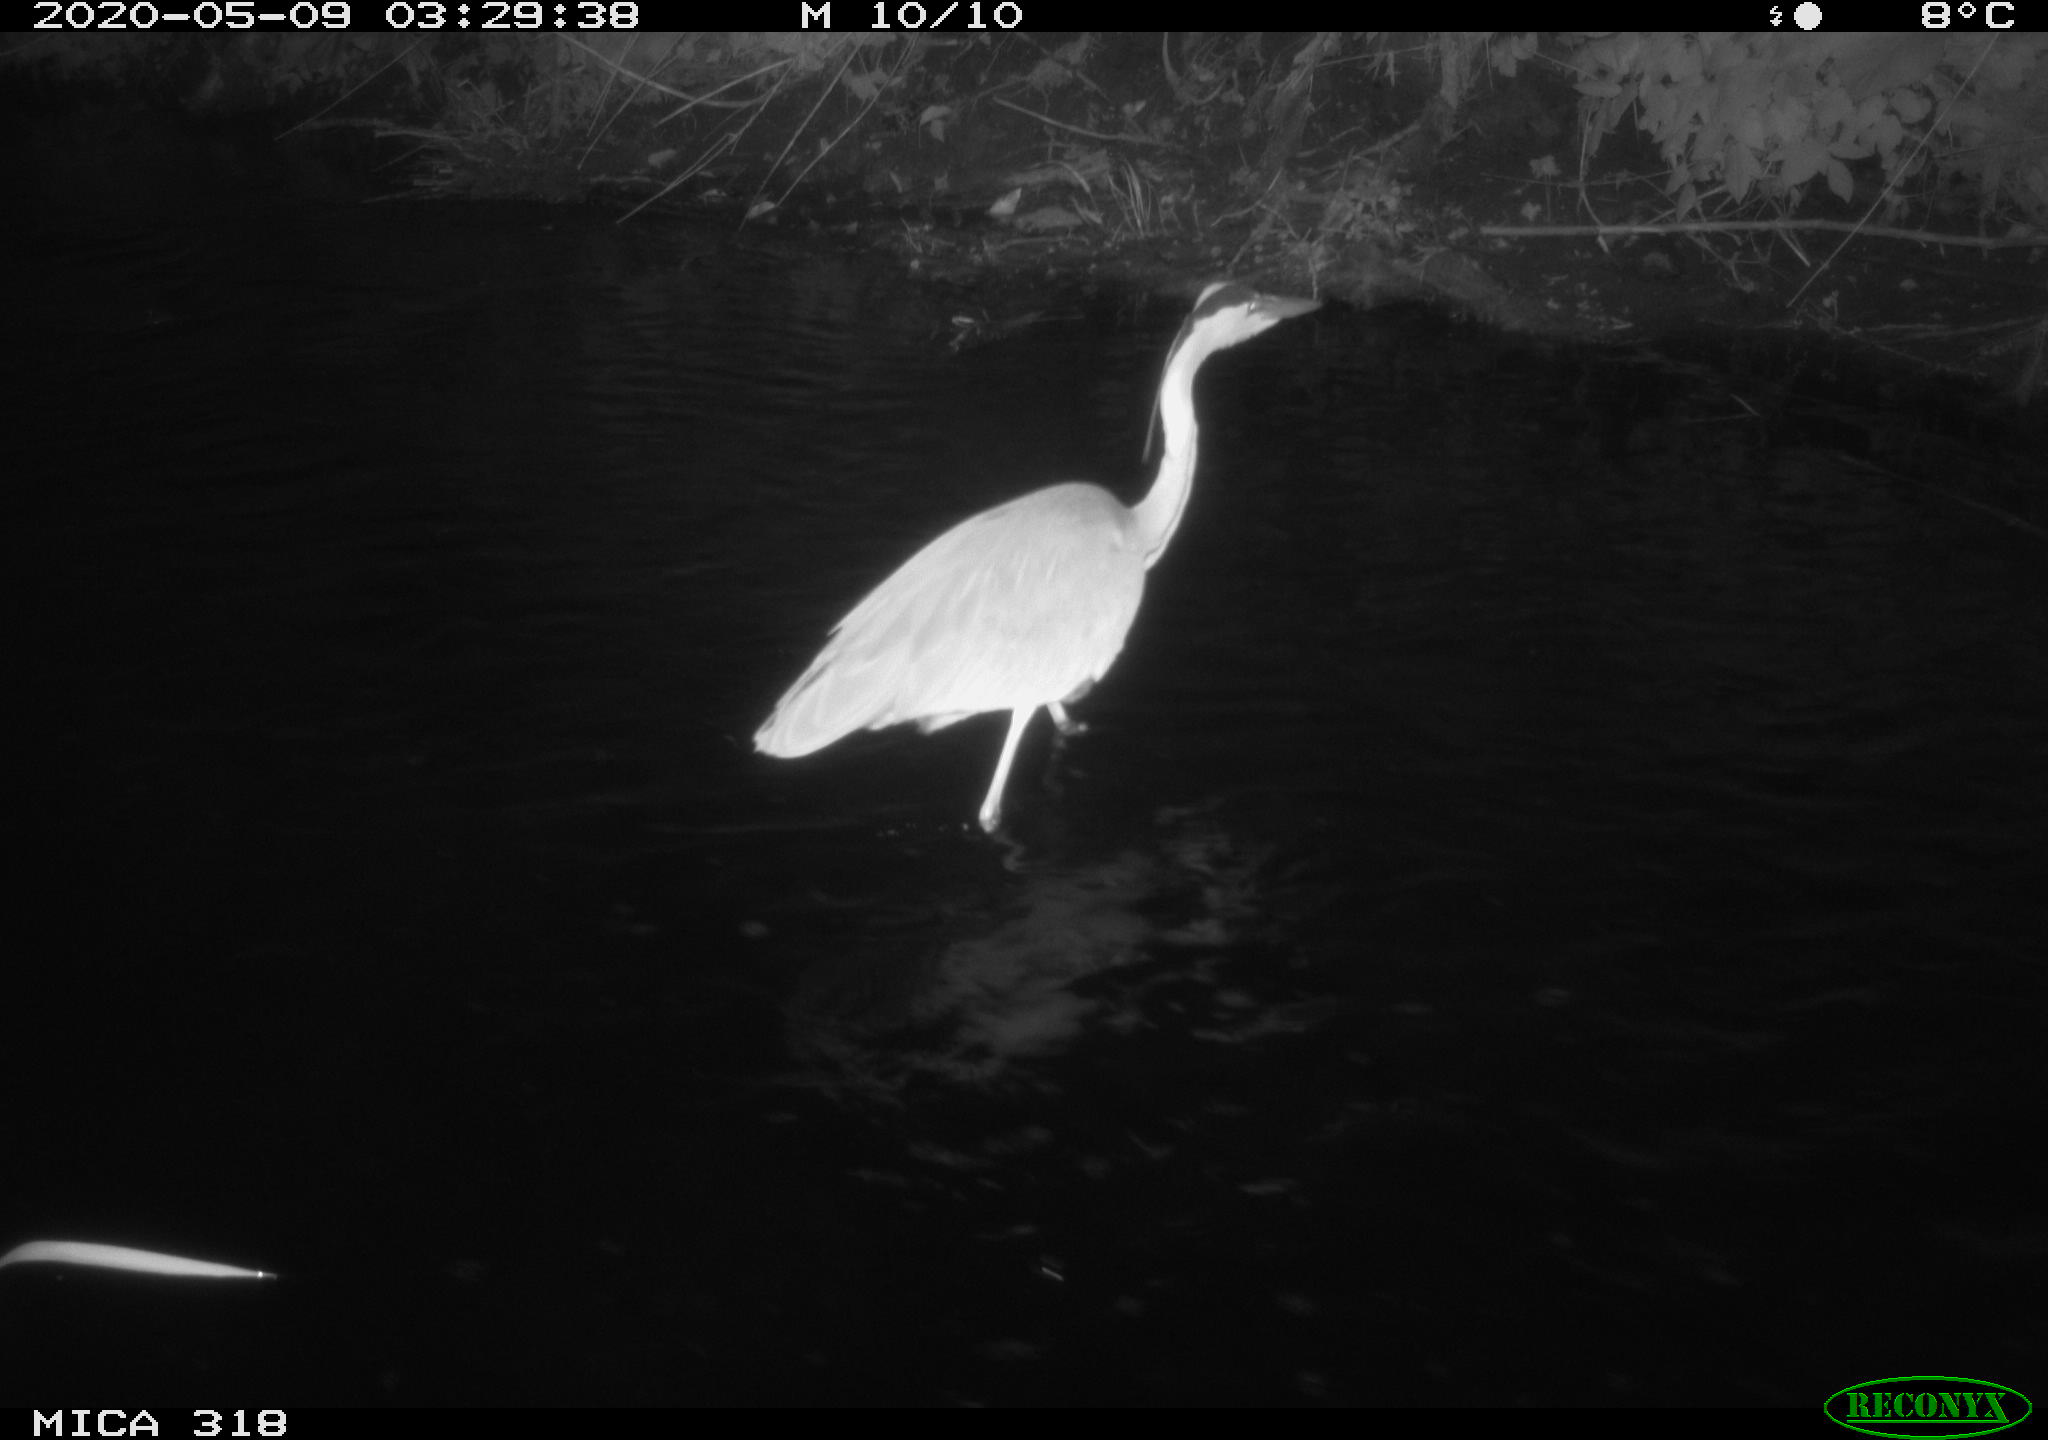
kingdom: Animalia
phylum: Chordata
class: Aves
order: Pelecaniformes
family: Ardeidae
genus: Ardea
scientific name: Ardea cinerea
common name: Grey heron
